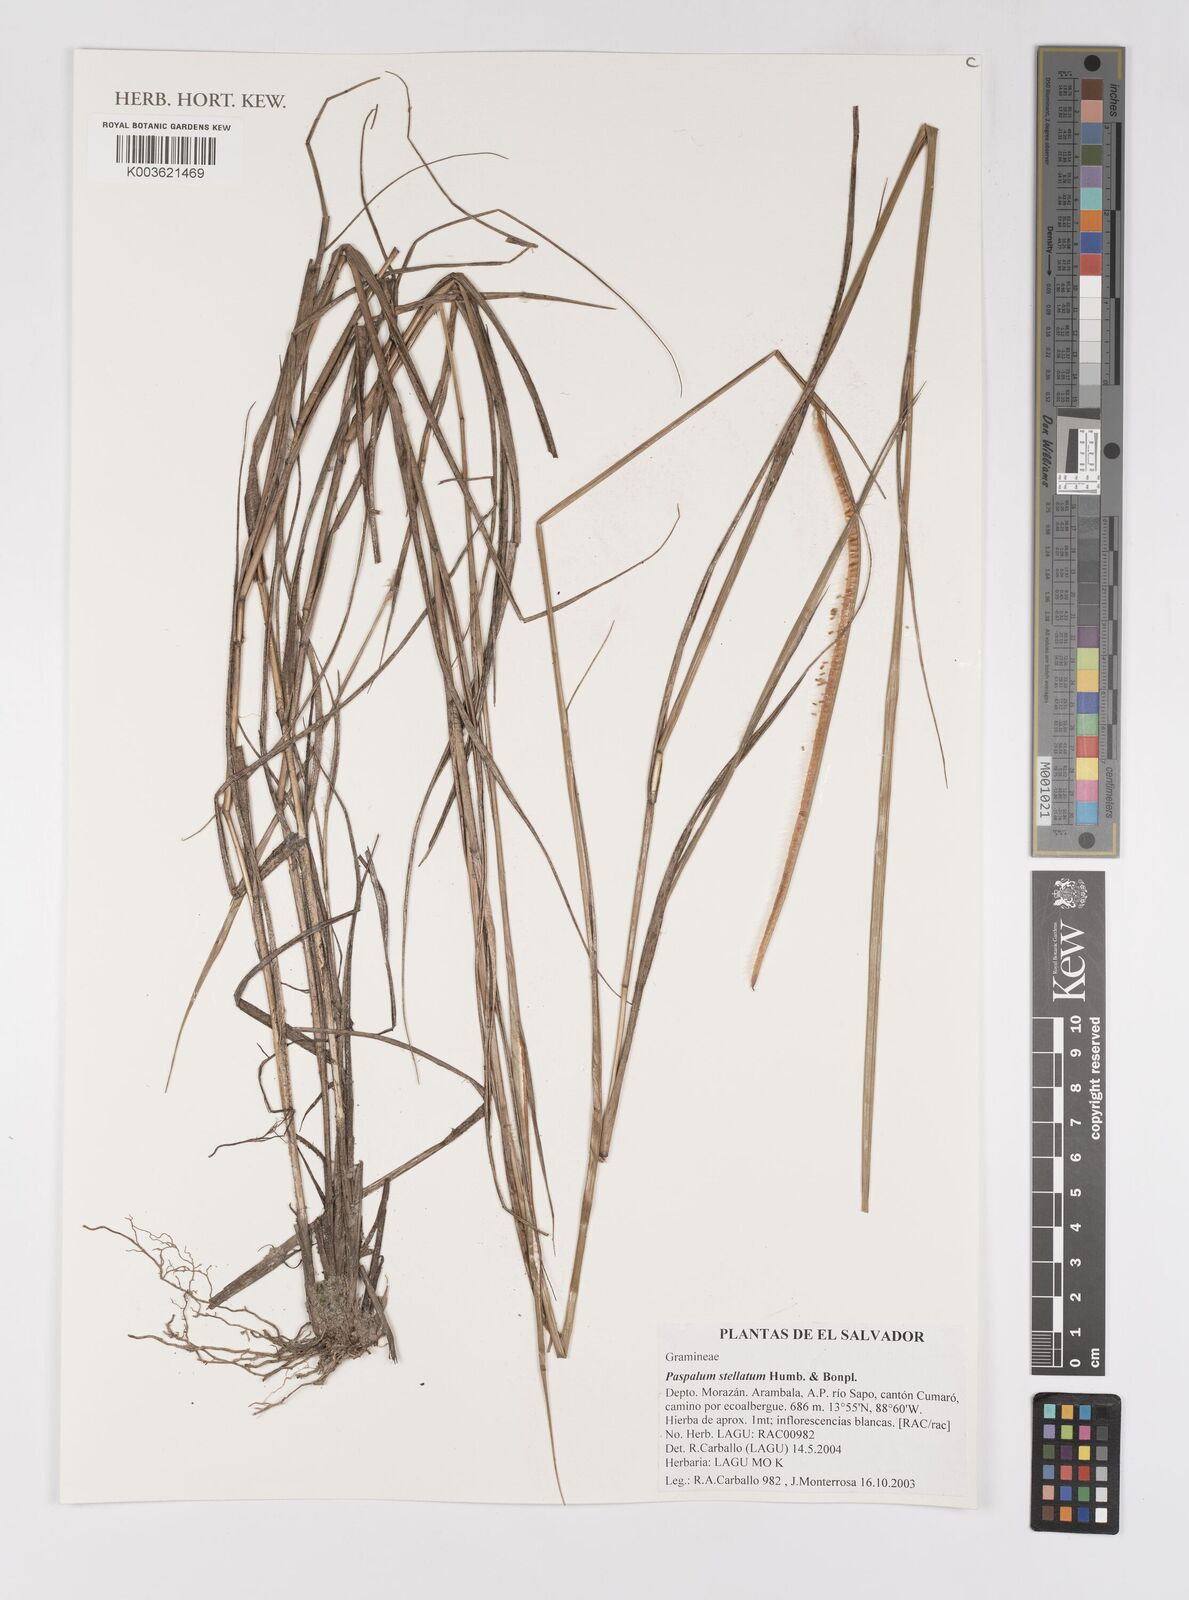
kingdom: Plantae
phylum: Tracheophyta
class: Liliopsida
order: Poales
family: Poaceae
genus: Paspalum
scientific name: Paspalum stellatum
